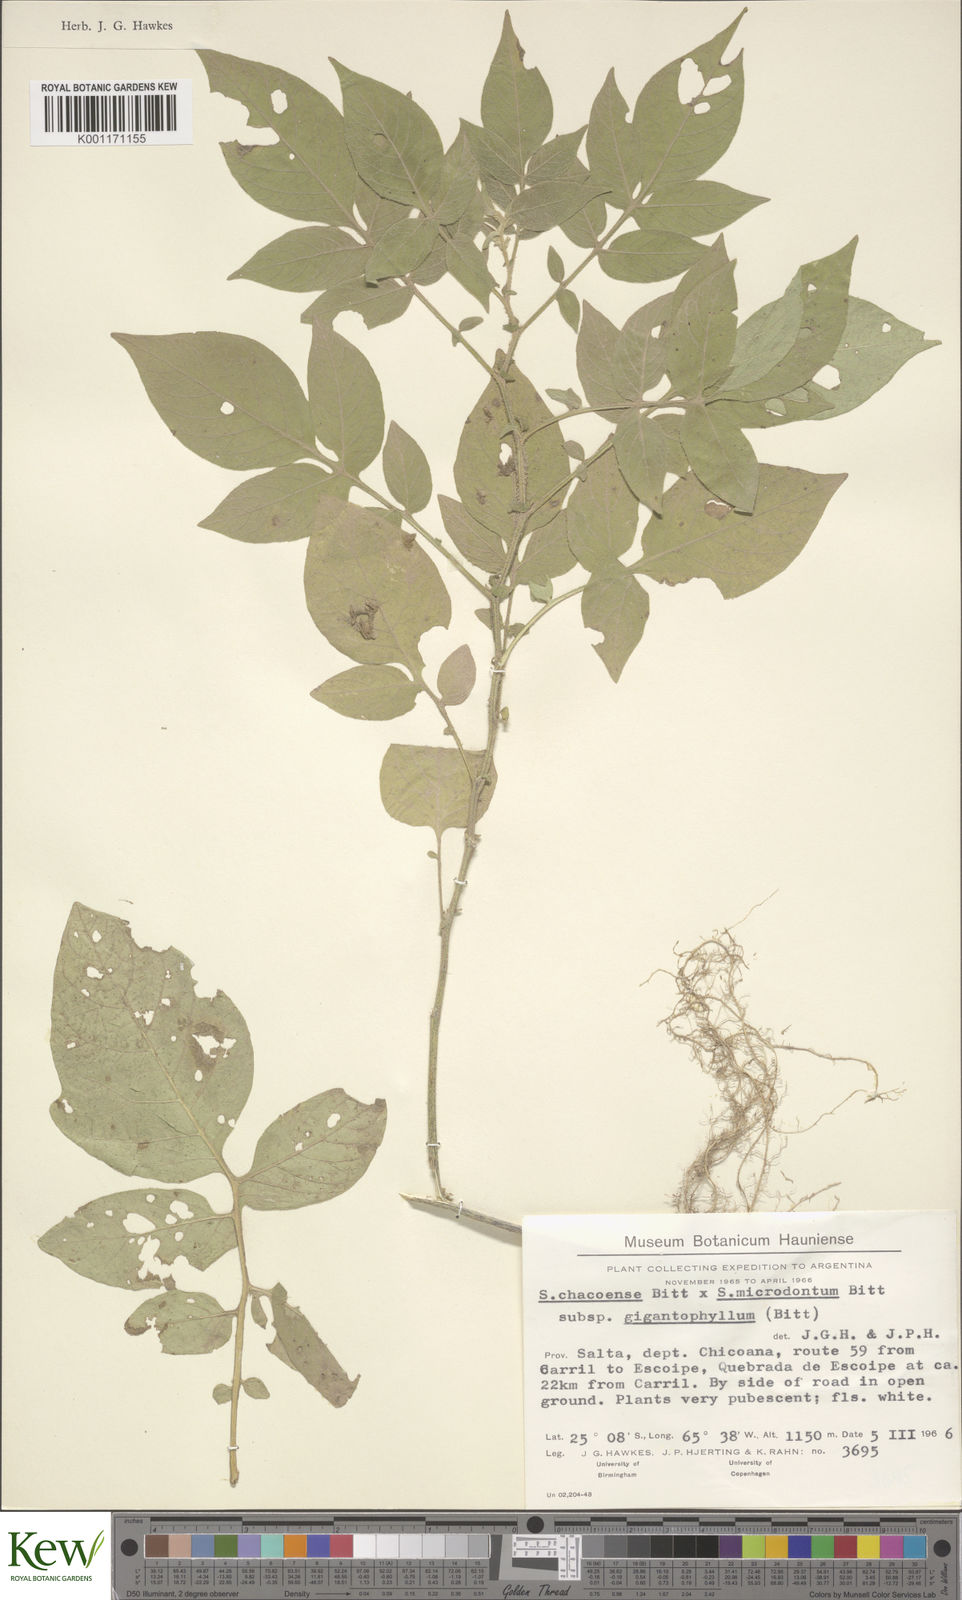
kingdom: Plantae
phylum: Tracheophyta
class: Magnoliopsida
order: Solanales
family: Solanaceae
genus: Solanum
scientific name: Solanum microdontum
